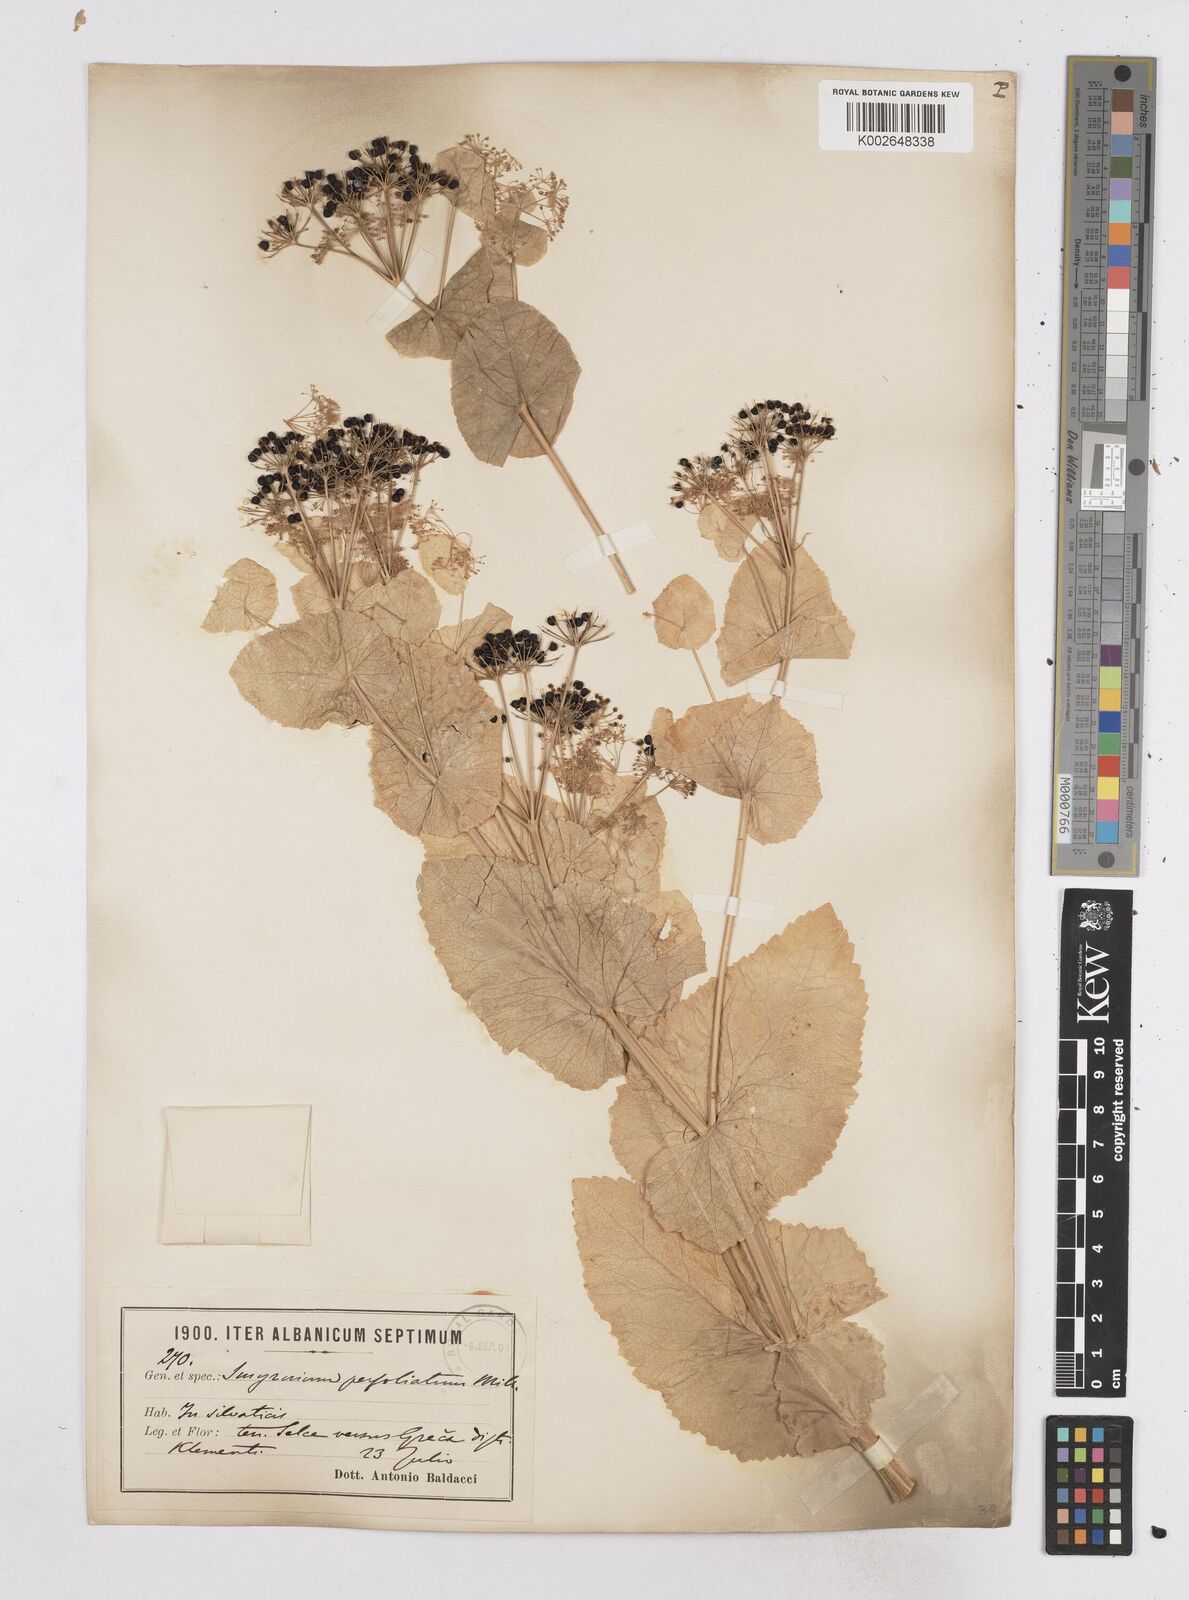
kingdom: Plantae
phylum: Tracheophyta
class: Magnoliopsida
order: Apiales
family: Apiaceae
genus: Smyrnium
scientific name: Smyrnium perfoliatum
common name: Perfoliate alexanders
